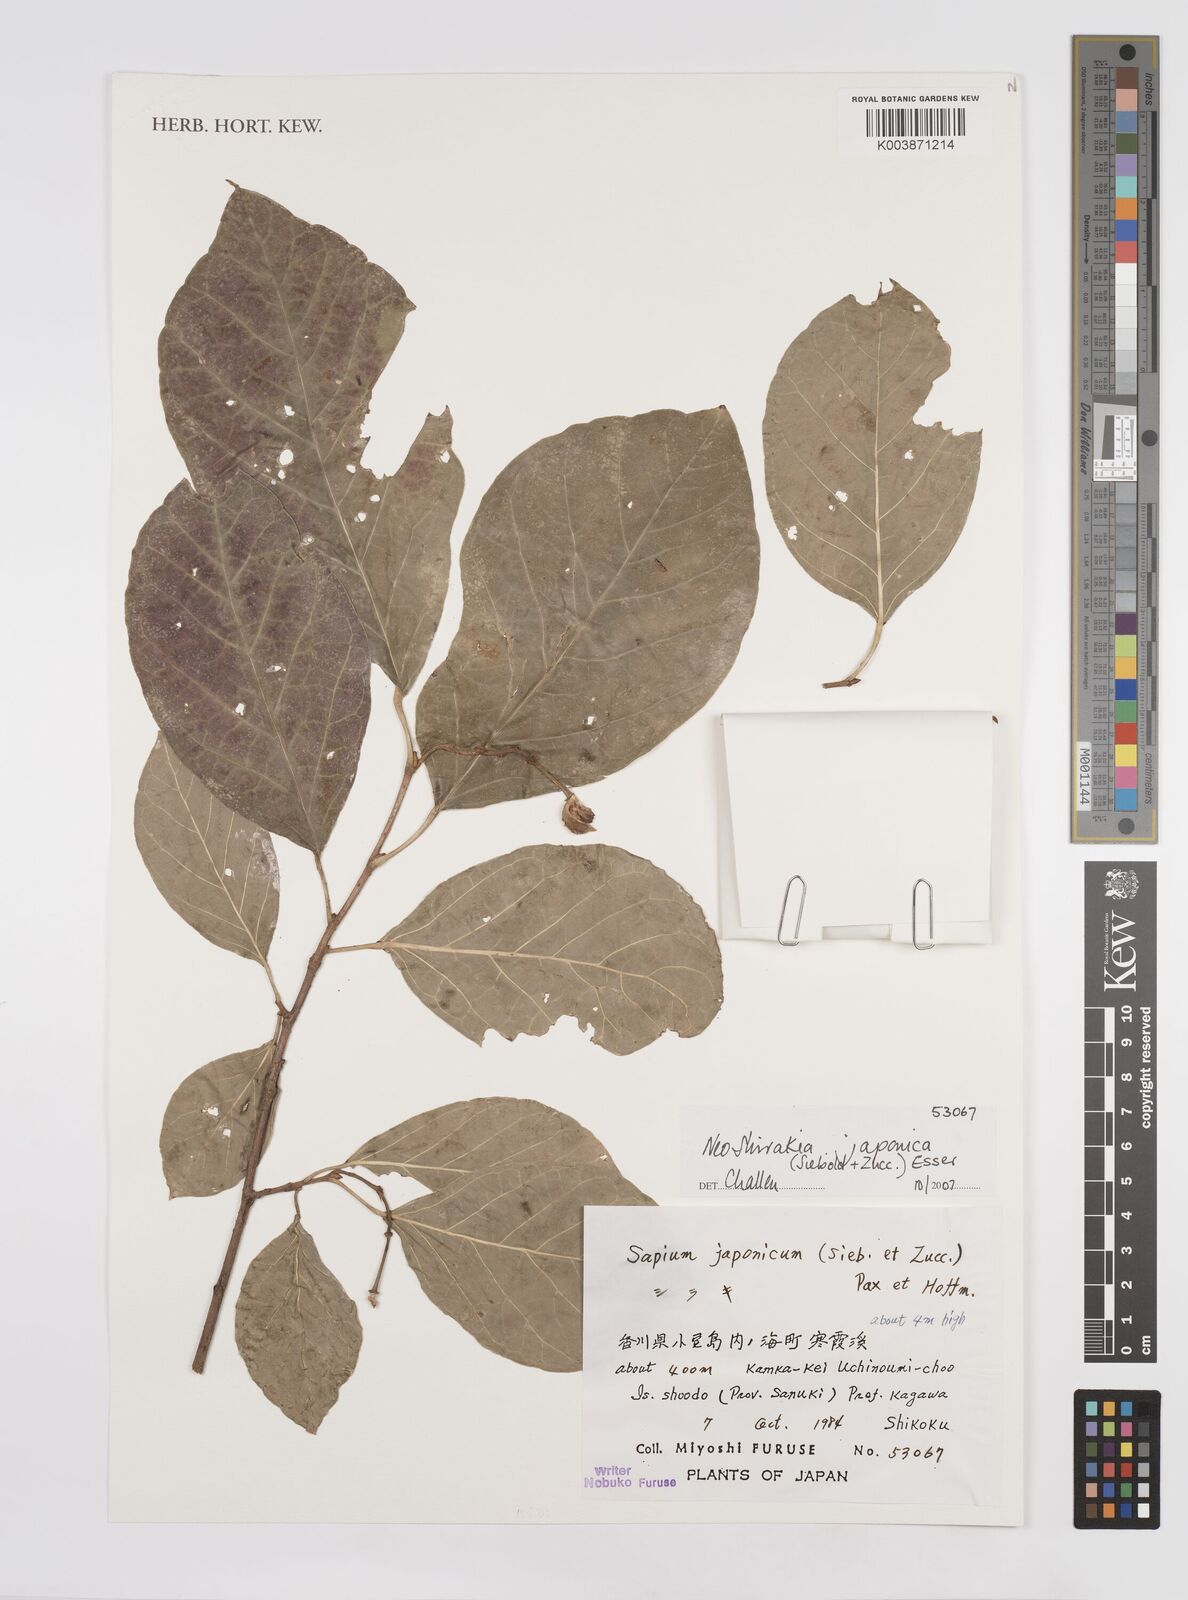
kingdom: Plantae
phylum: Tracheophyta
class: Magnoliopsida
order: Malpighiales
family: Euphorbiaceae
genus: Neoshirakia
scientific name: Neoshirakia japonica
